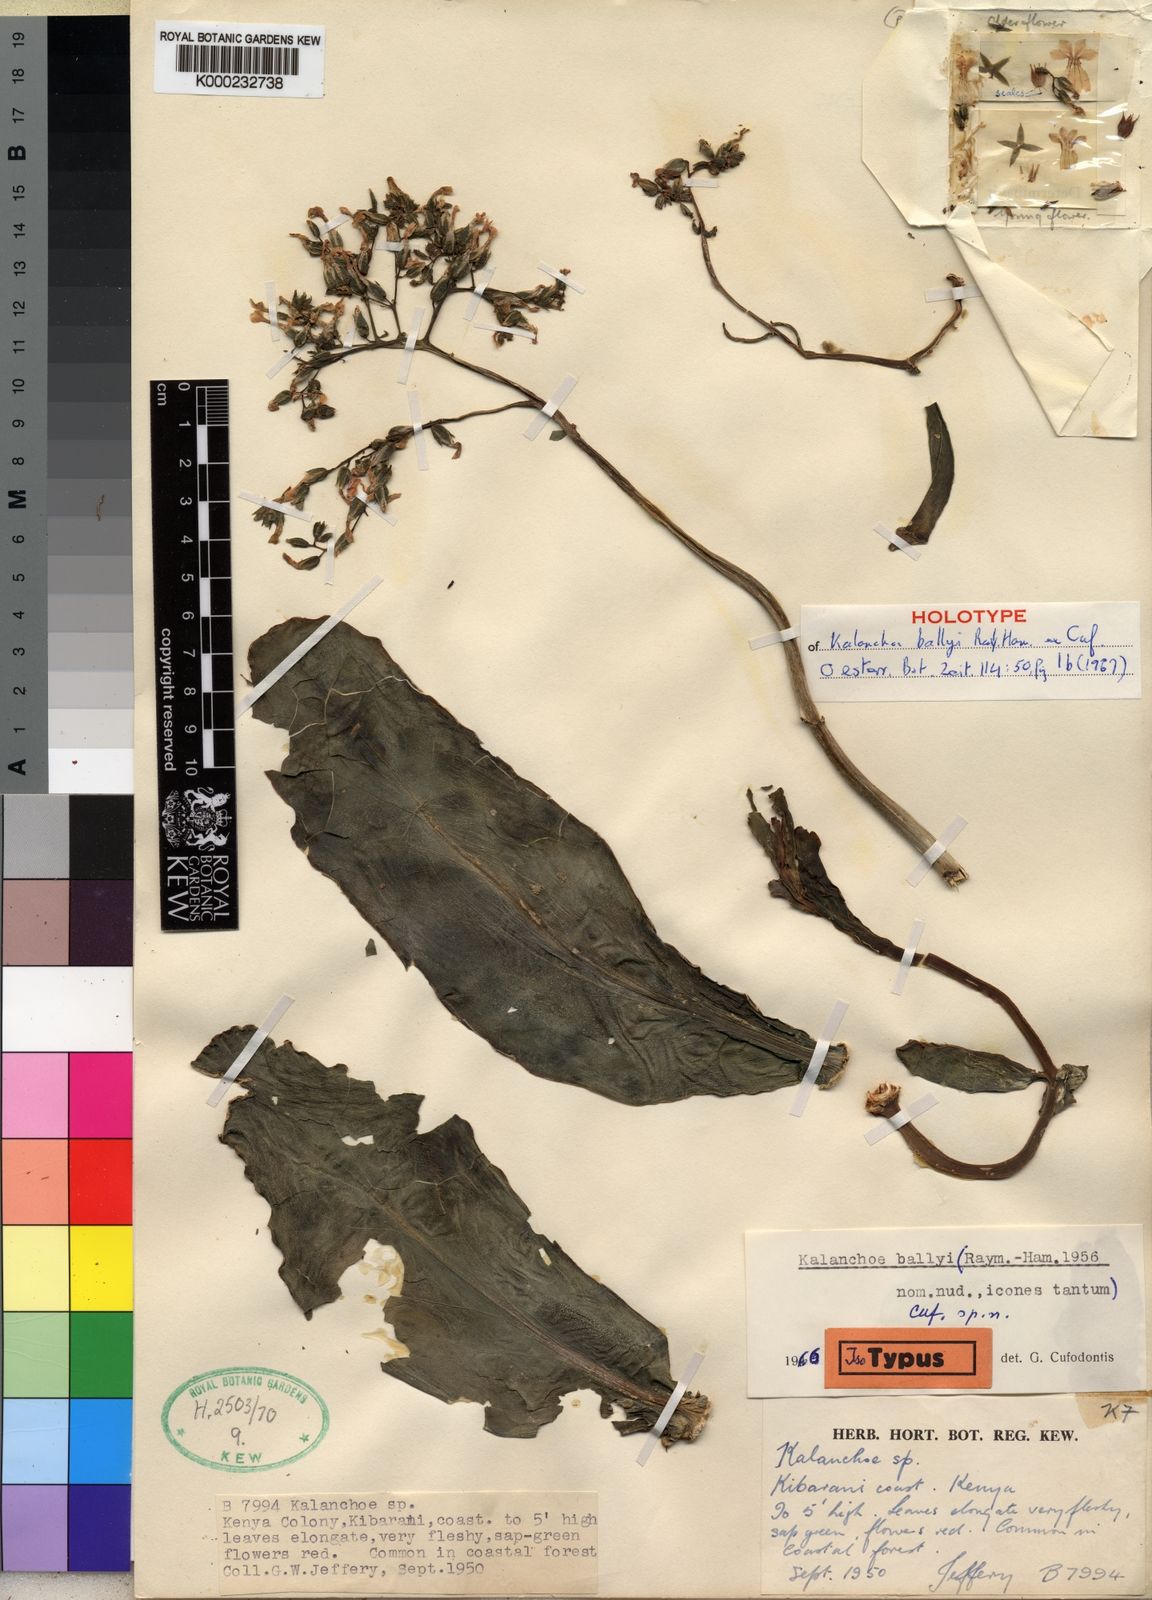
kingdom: Plantae
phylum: Tracheophyta
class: Magnoliopsida
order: Saxifragales
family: Crassulaceae
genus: Kalanchoe
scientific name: Kalanchoe ballyi
